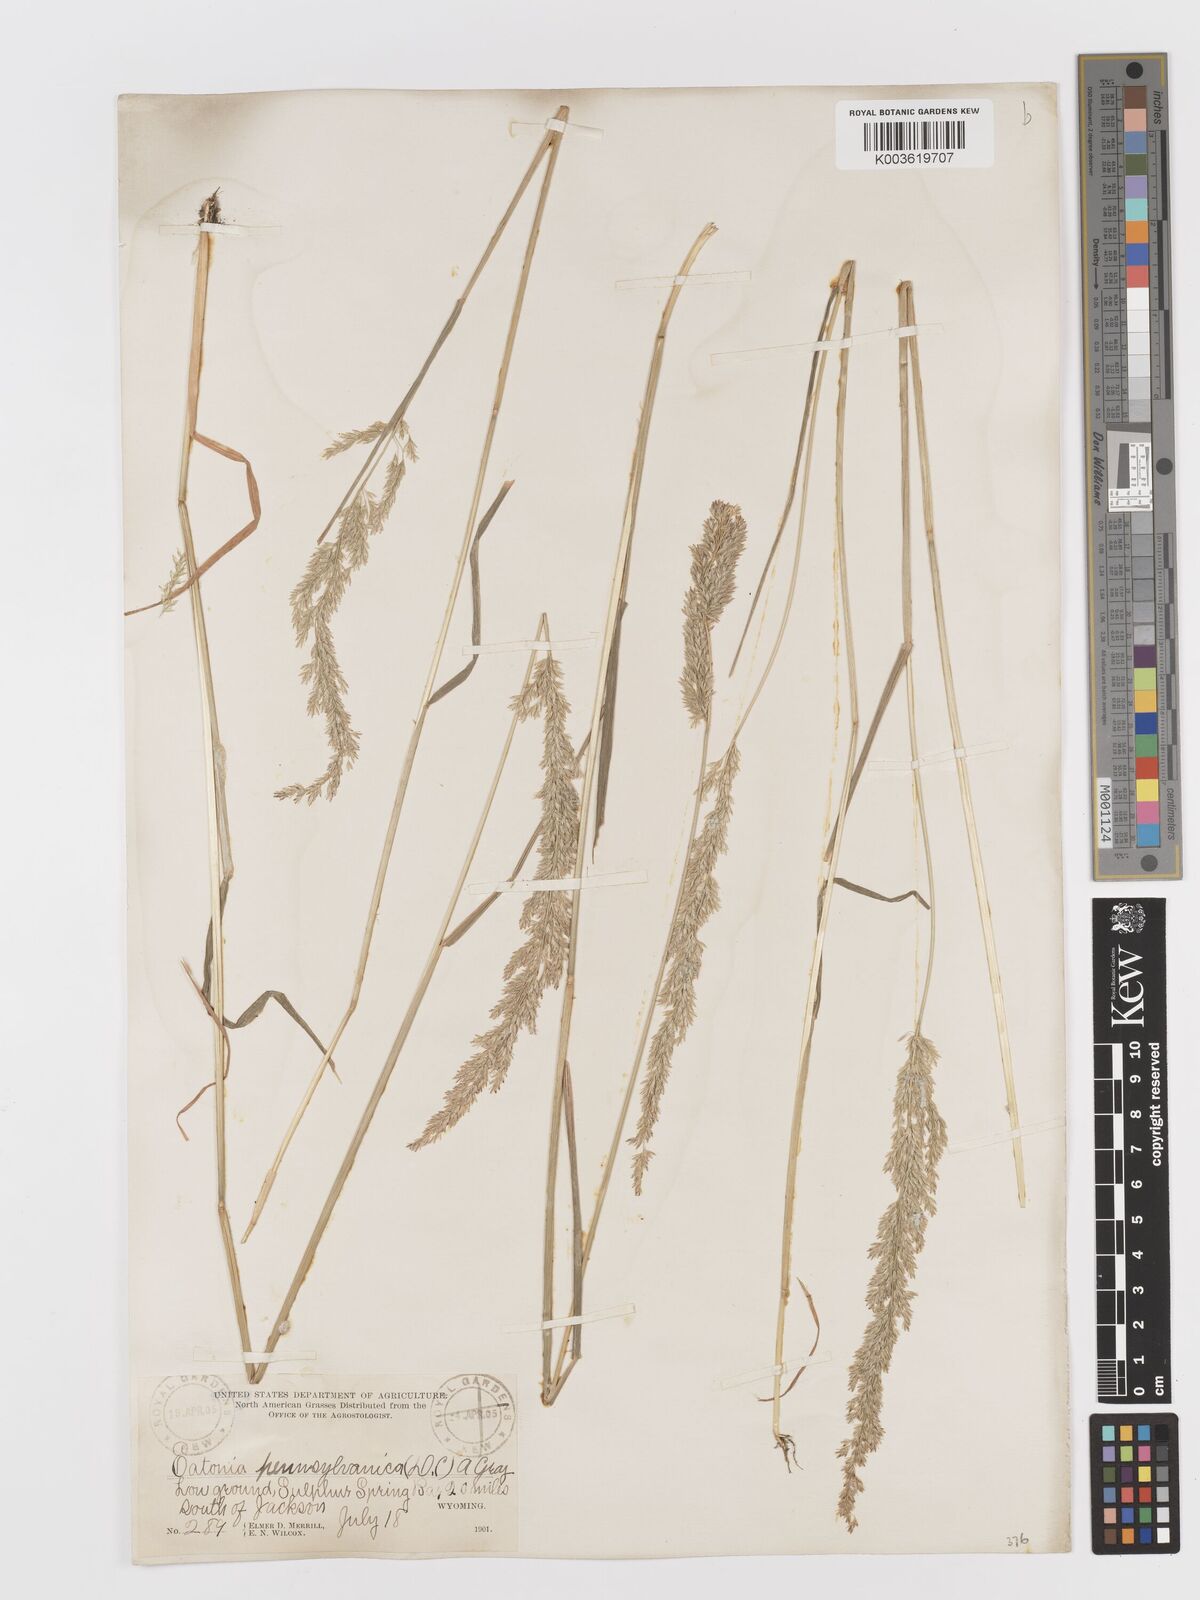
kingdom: Plantae
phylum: Tracheophyta
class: Liliopsida
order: Poales
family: Poaceae
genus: Sphenopholis
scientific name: Sphenopholis obtusata
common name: Prairie grass
